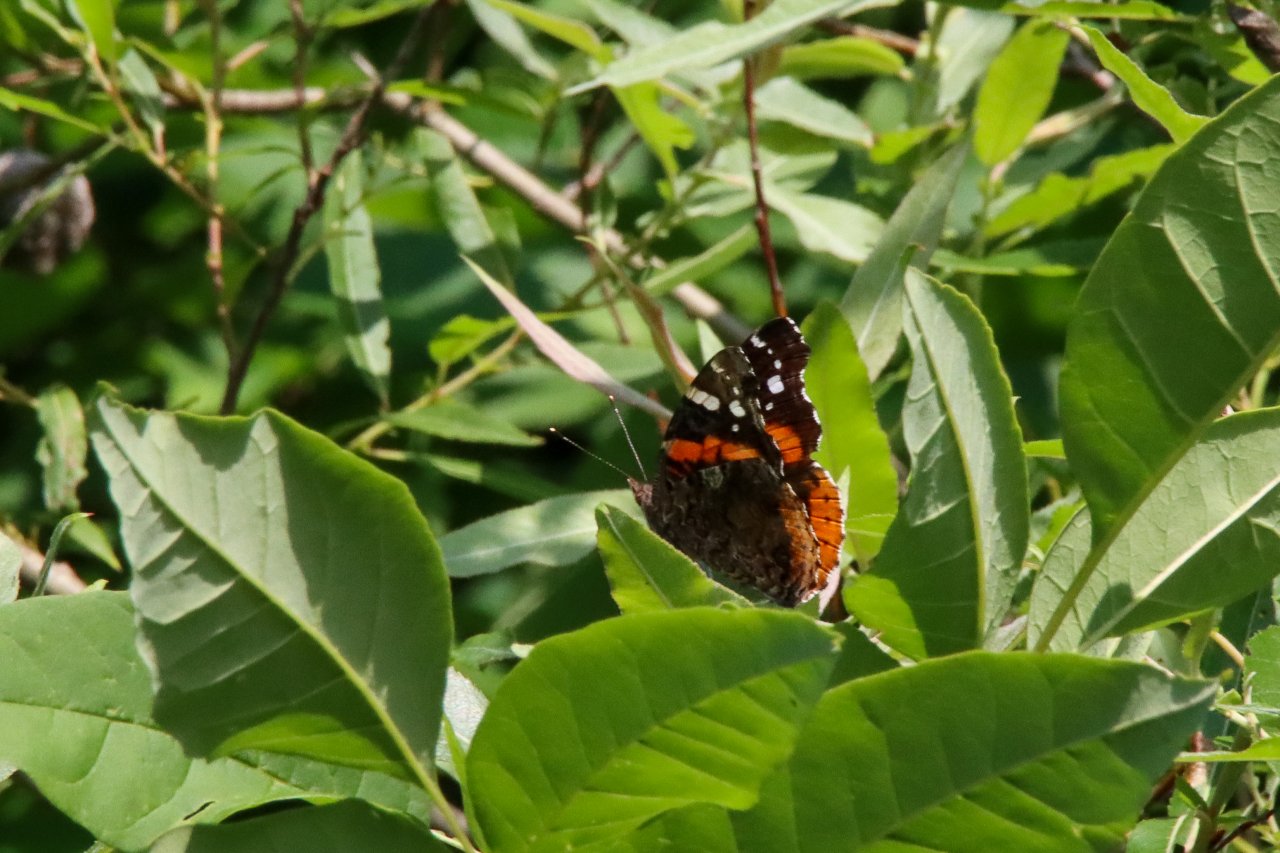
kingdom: Animalia
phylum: Arthropoda
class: Insecta
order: Lepidoptera
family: Nymphalidae
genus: Vanessa
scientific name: Vanessa atalanta
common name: Red Admiral
